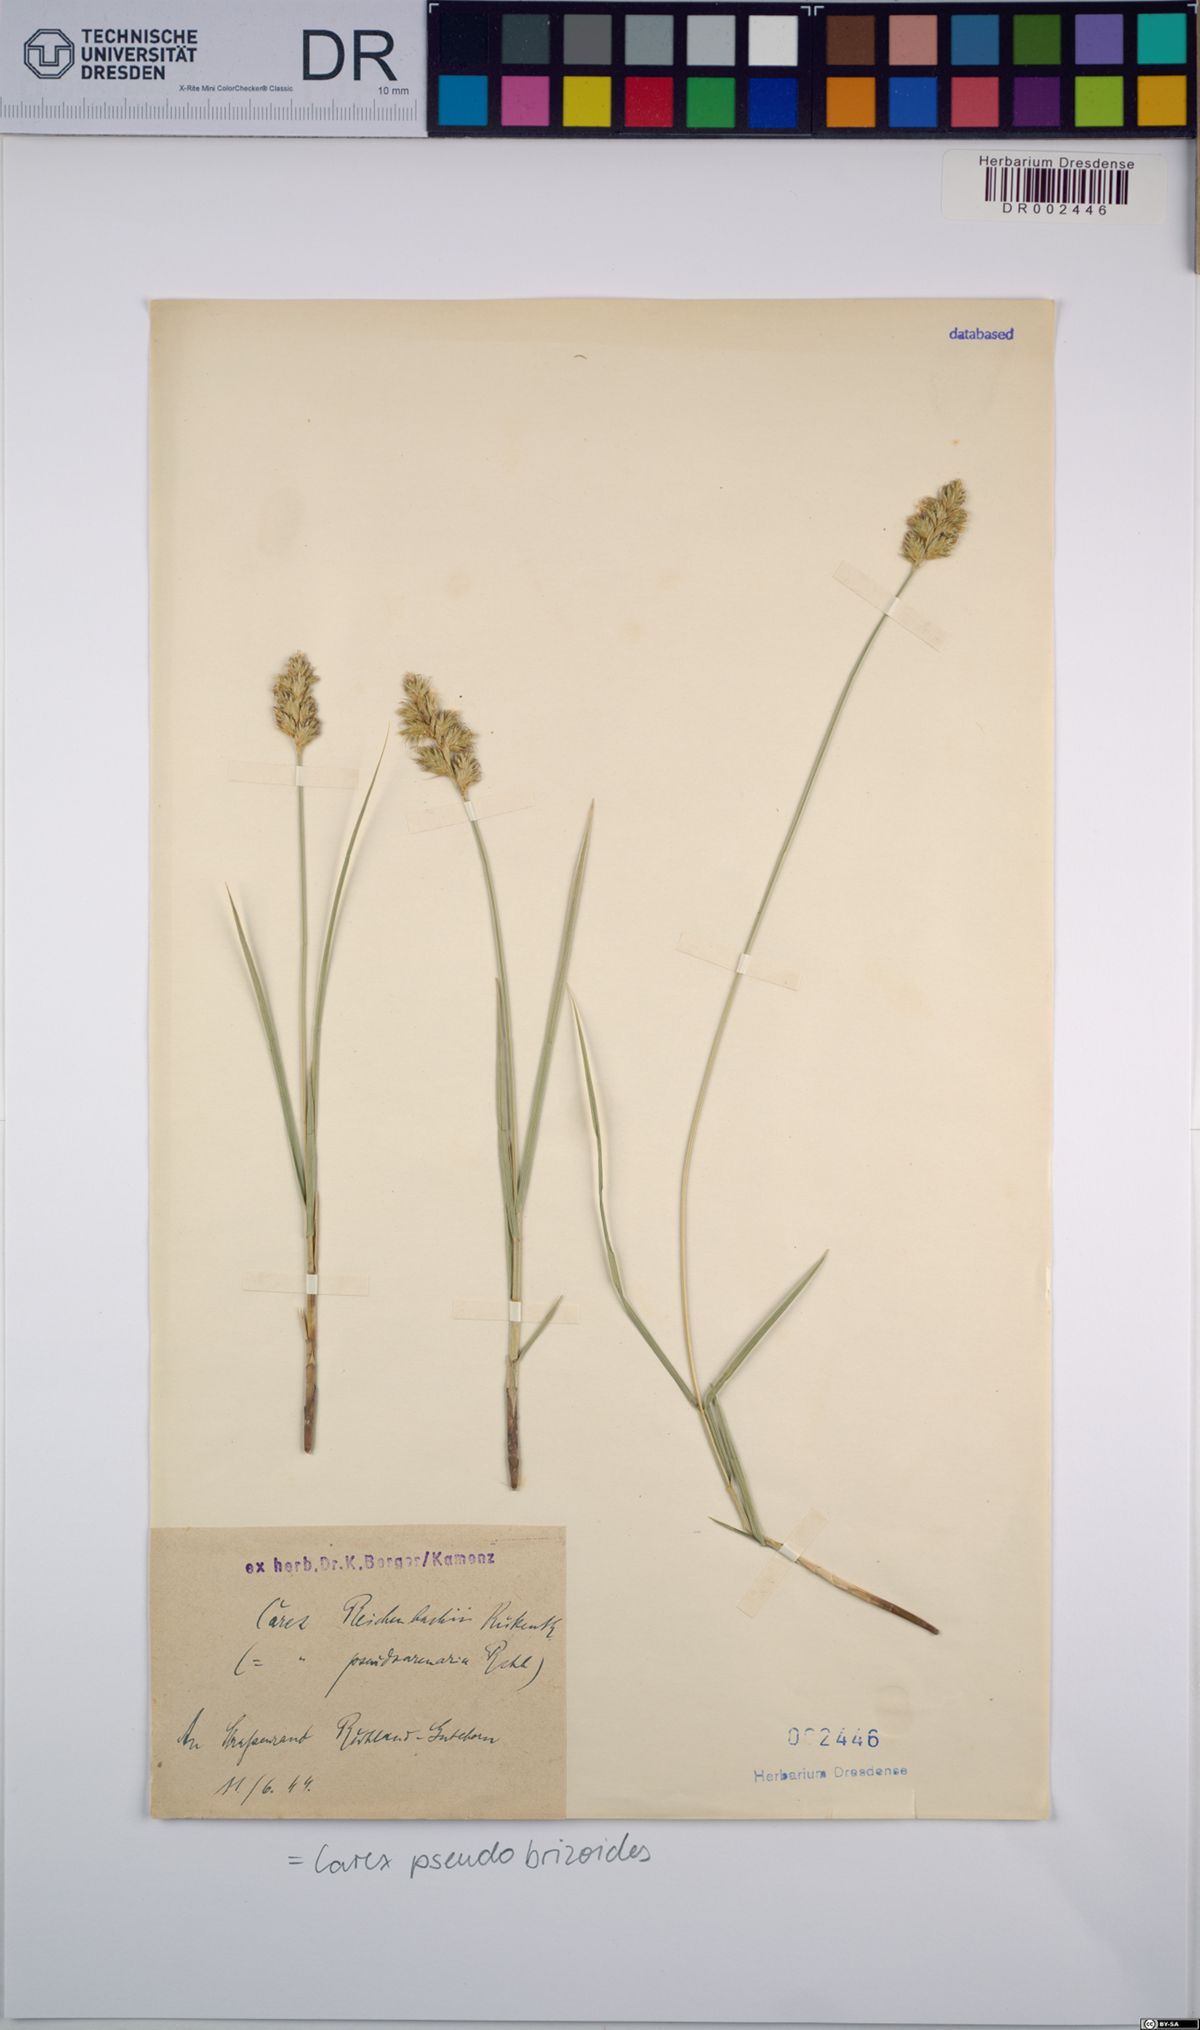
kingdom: Plantae
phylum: Tracheophyta
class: Liliopsida
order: Poales
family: Cyperaceae
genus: Carex
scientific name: Carex pseudobrizoides
